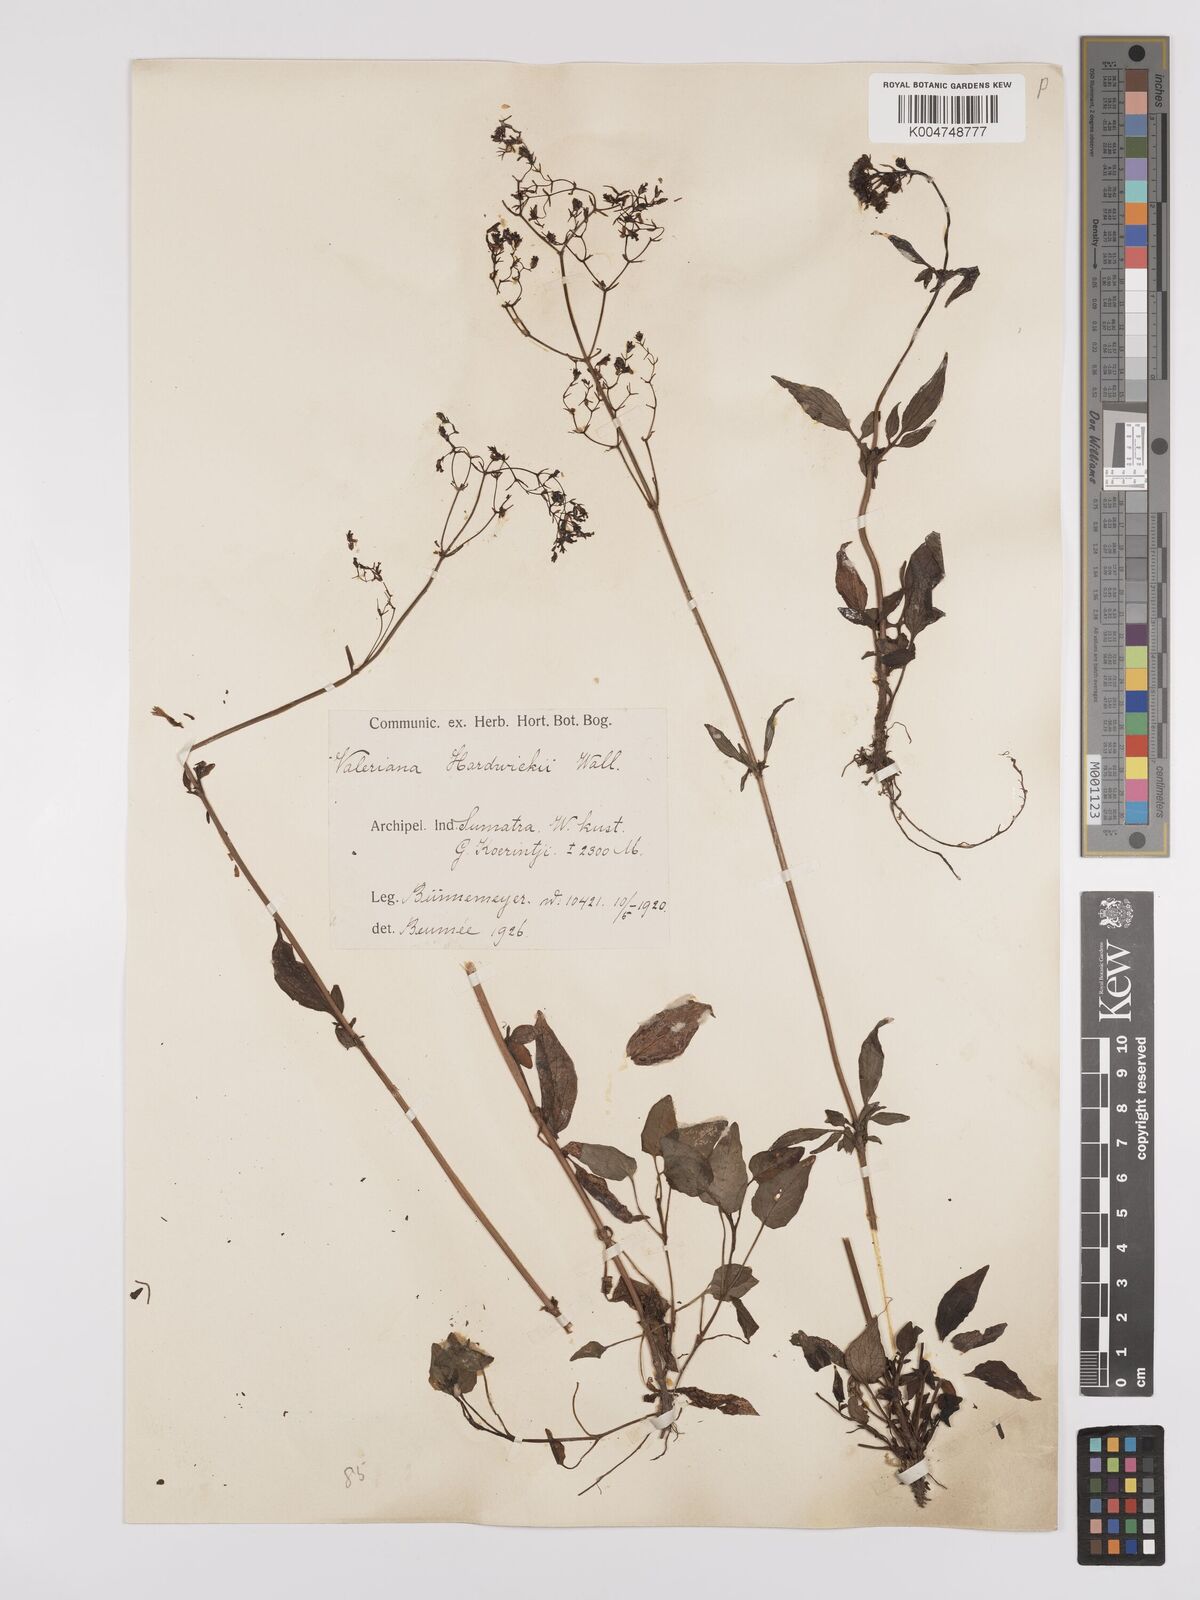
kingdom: Plantae
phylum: Tracheophyta
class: Magnoliopsida
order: Dipsacales
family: Caprifoliaceae
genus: Valeriana
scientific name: Valeriana hardwickei
